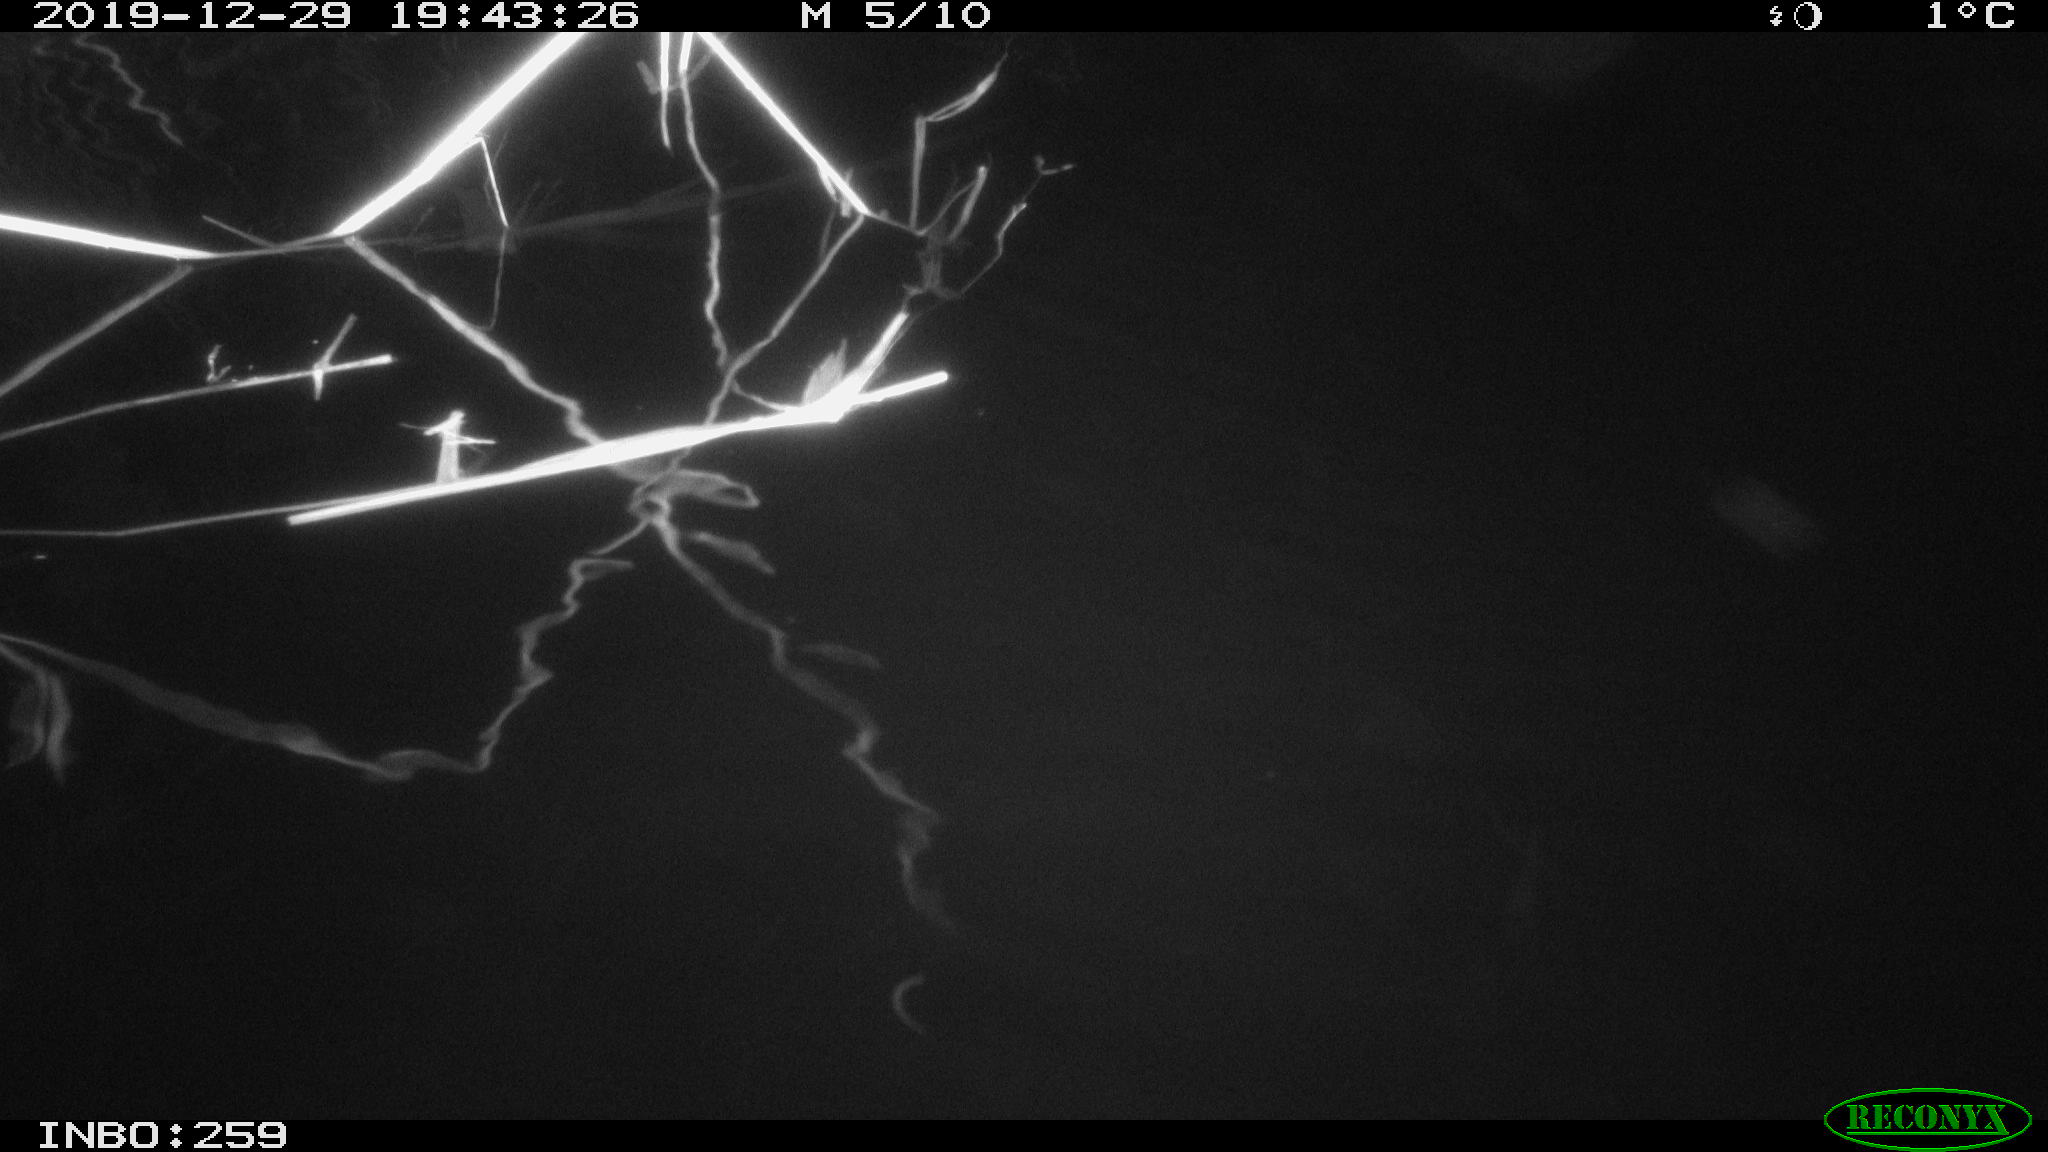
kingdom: Animalia
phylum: Chordata
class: Mammalia
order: Rodentia
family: Cricetidae
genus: Ondatra
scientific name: Ondatra zibethicus
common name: Muskrat
